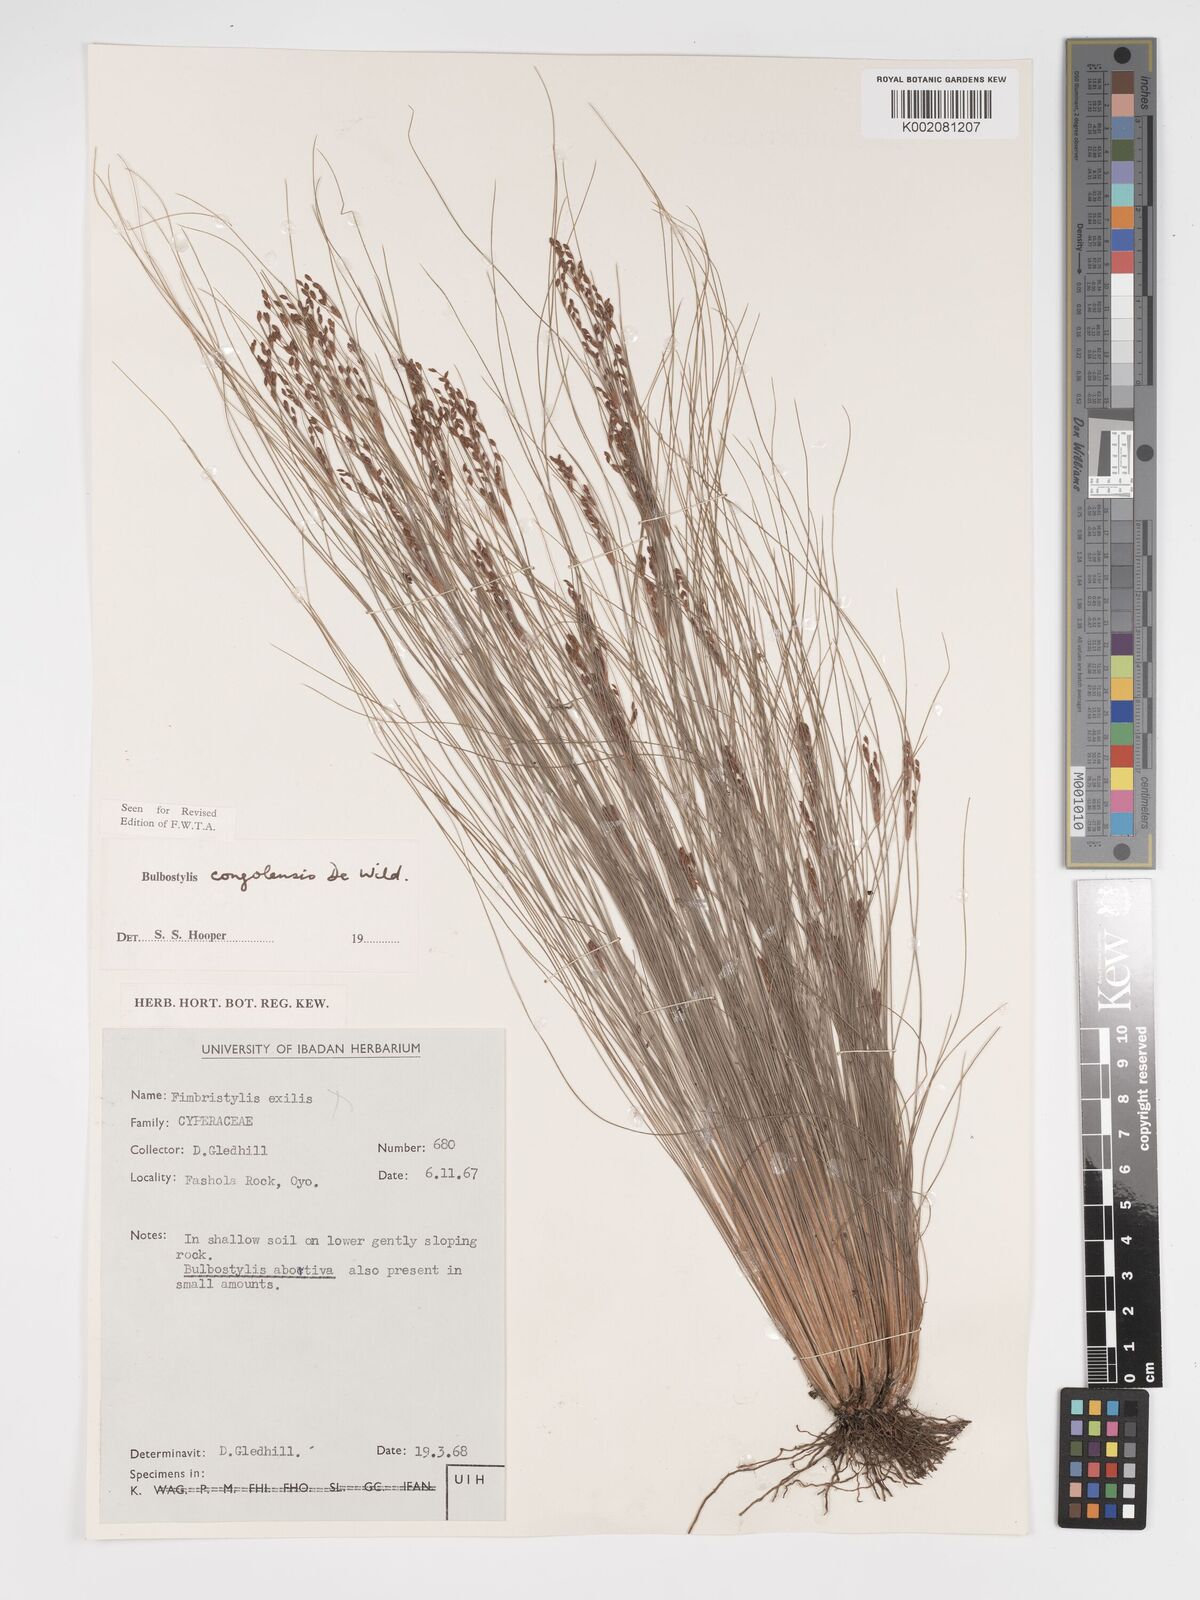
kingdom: Plantae
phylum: Tracheophyta
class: Liliopsida
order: Poales
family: Cyperaceae
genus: Bulbostylis
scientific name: Bulbostylis congolensis
